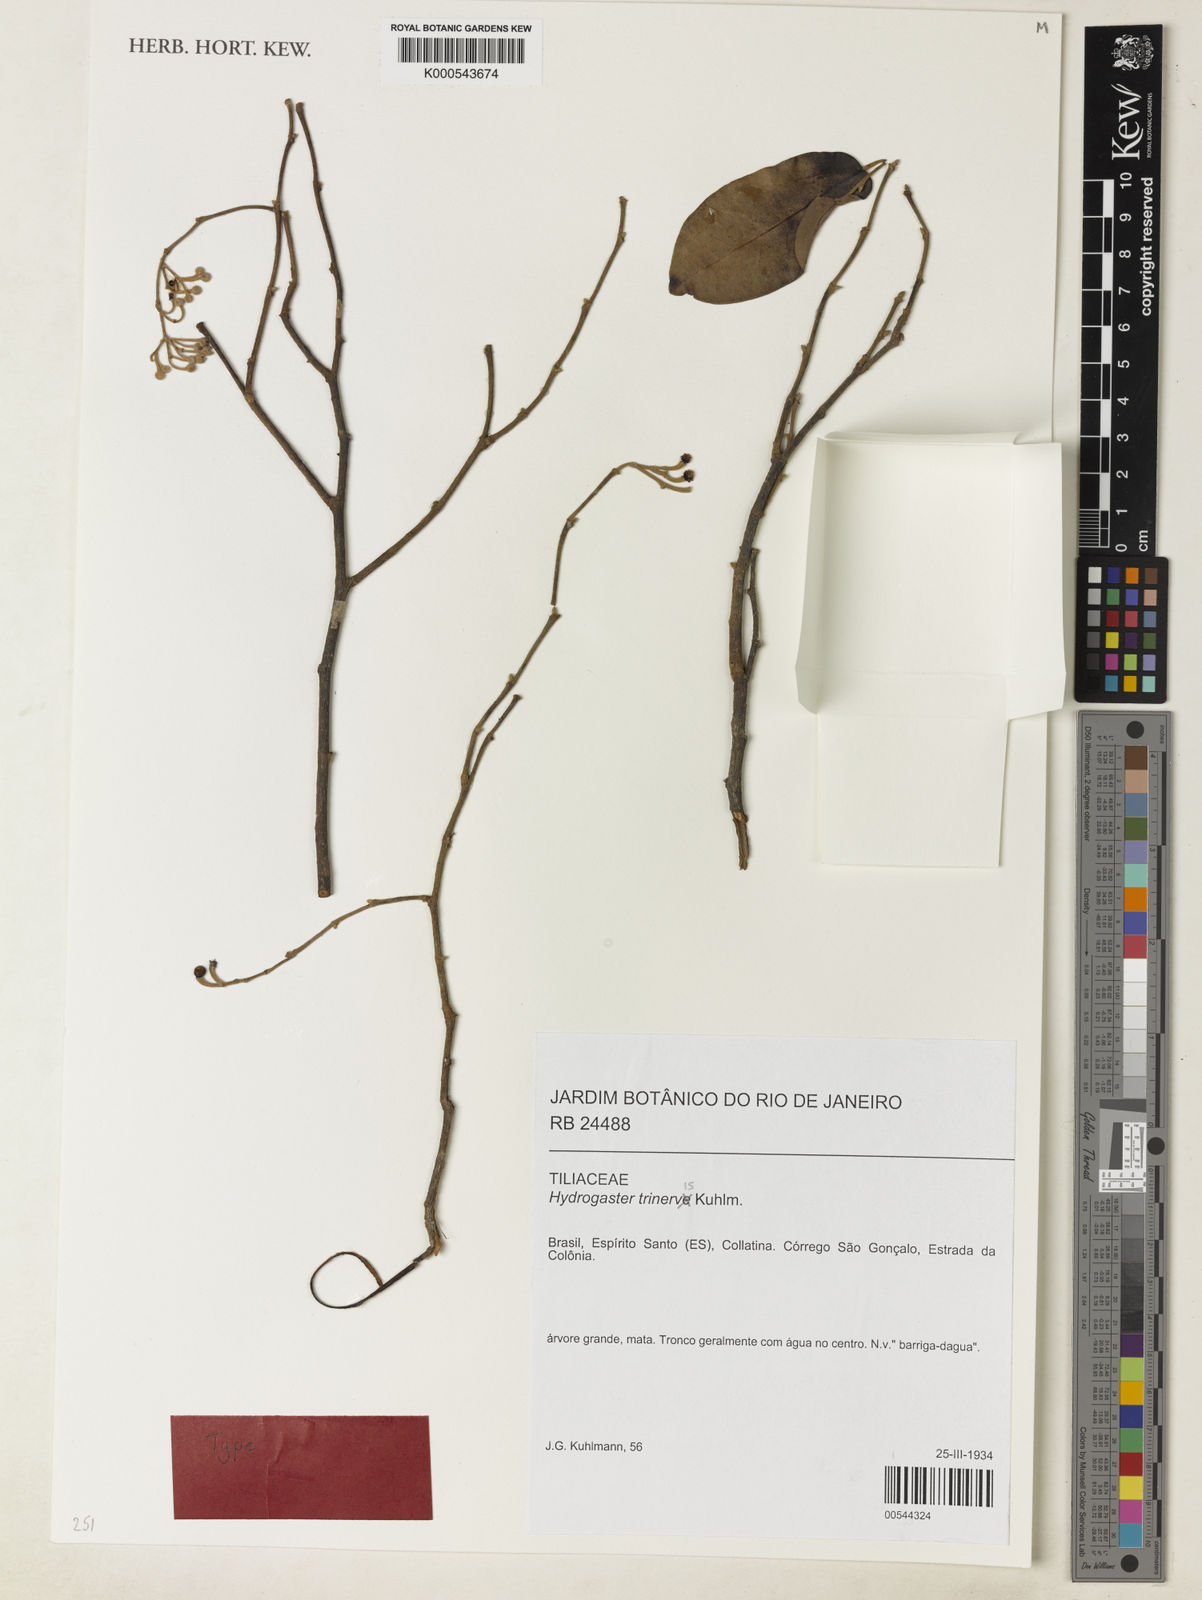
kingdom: Plantae
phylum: Tracheophyta
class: Magnoliopsida
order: Malvales
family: Malvaceae
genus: Hydrogaster
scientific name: Hydrogaster trinervis
